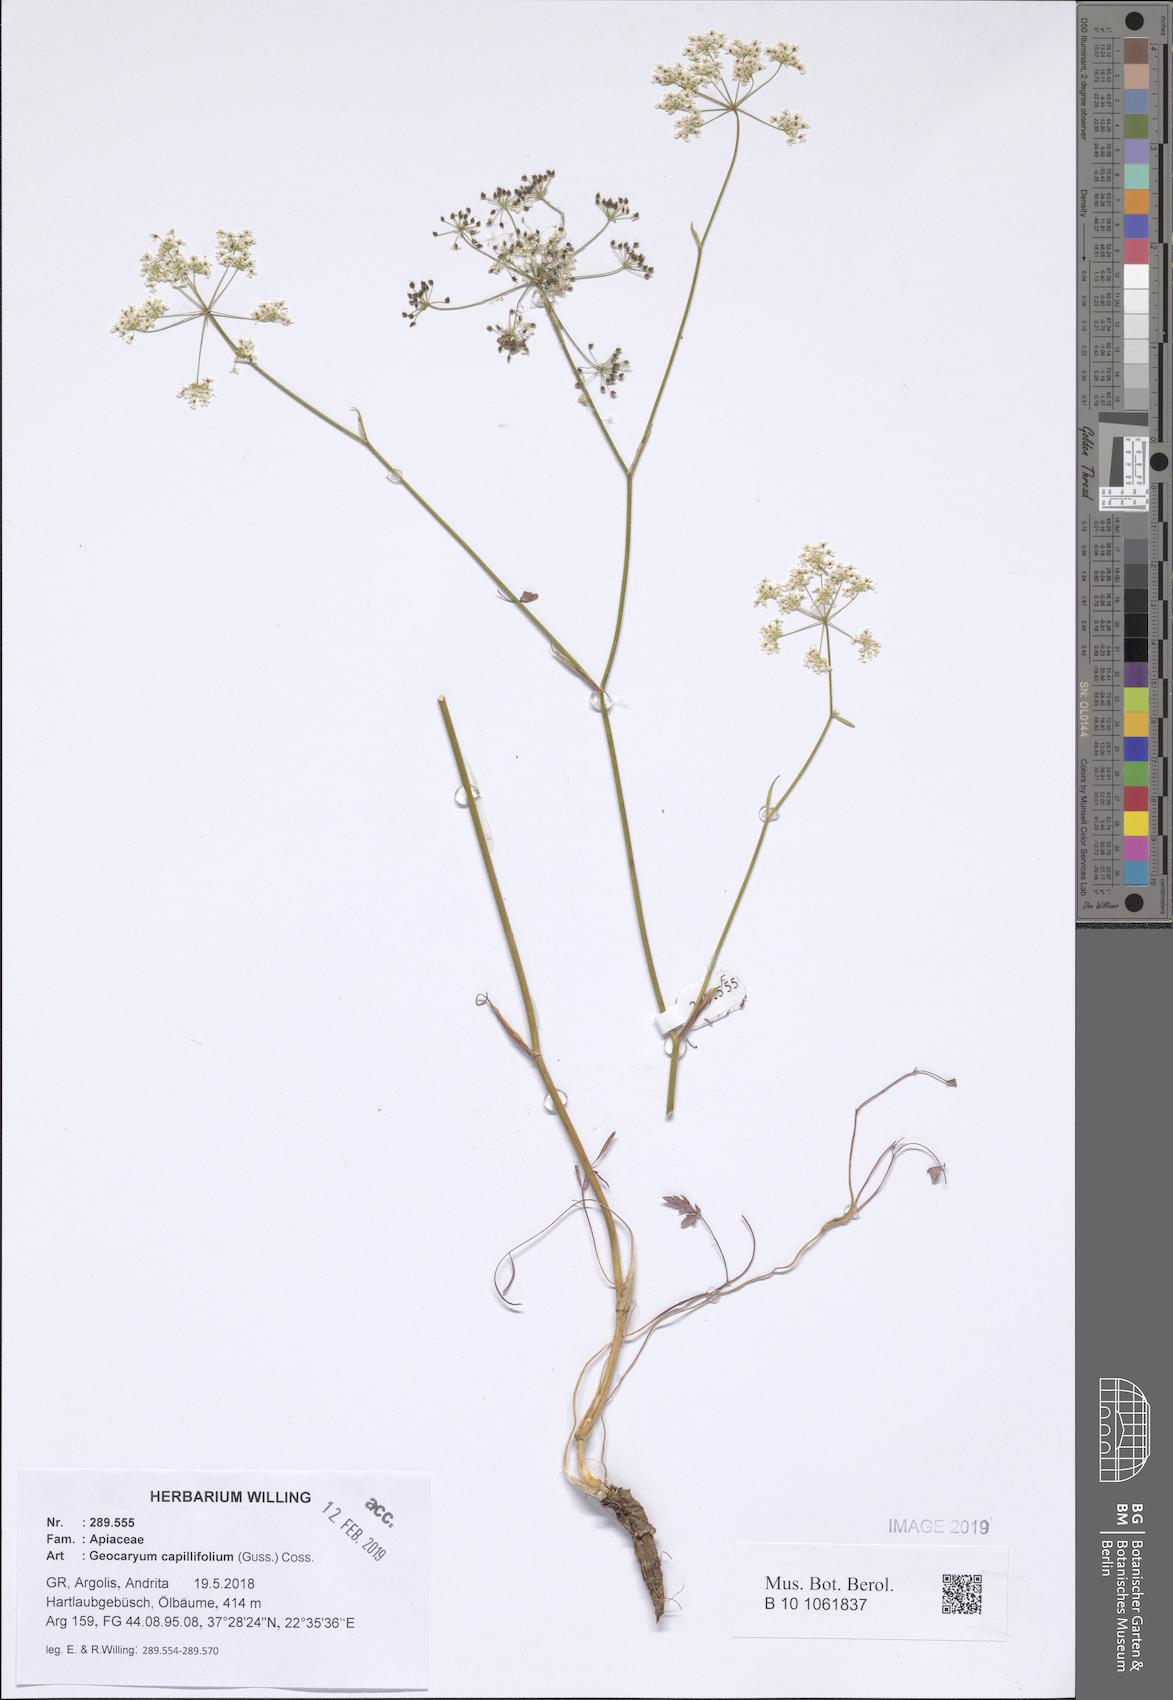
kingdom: Plantae
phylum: Tracheophyta
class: Magnoliopsida
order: Apiales
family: Apiaceae
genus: Geocaryum
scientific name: Geocaryum capillifolium
